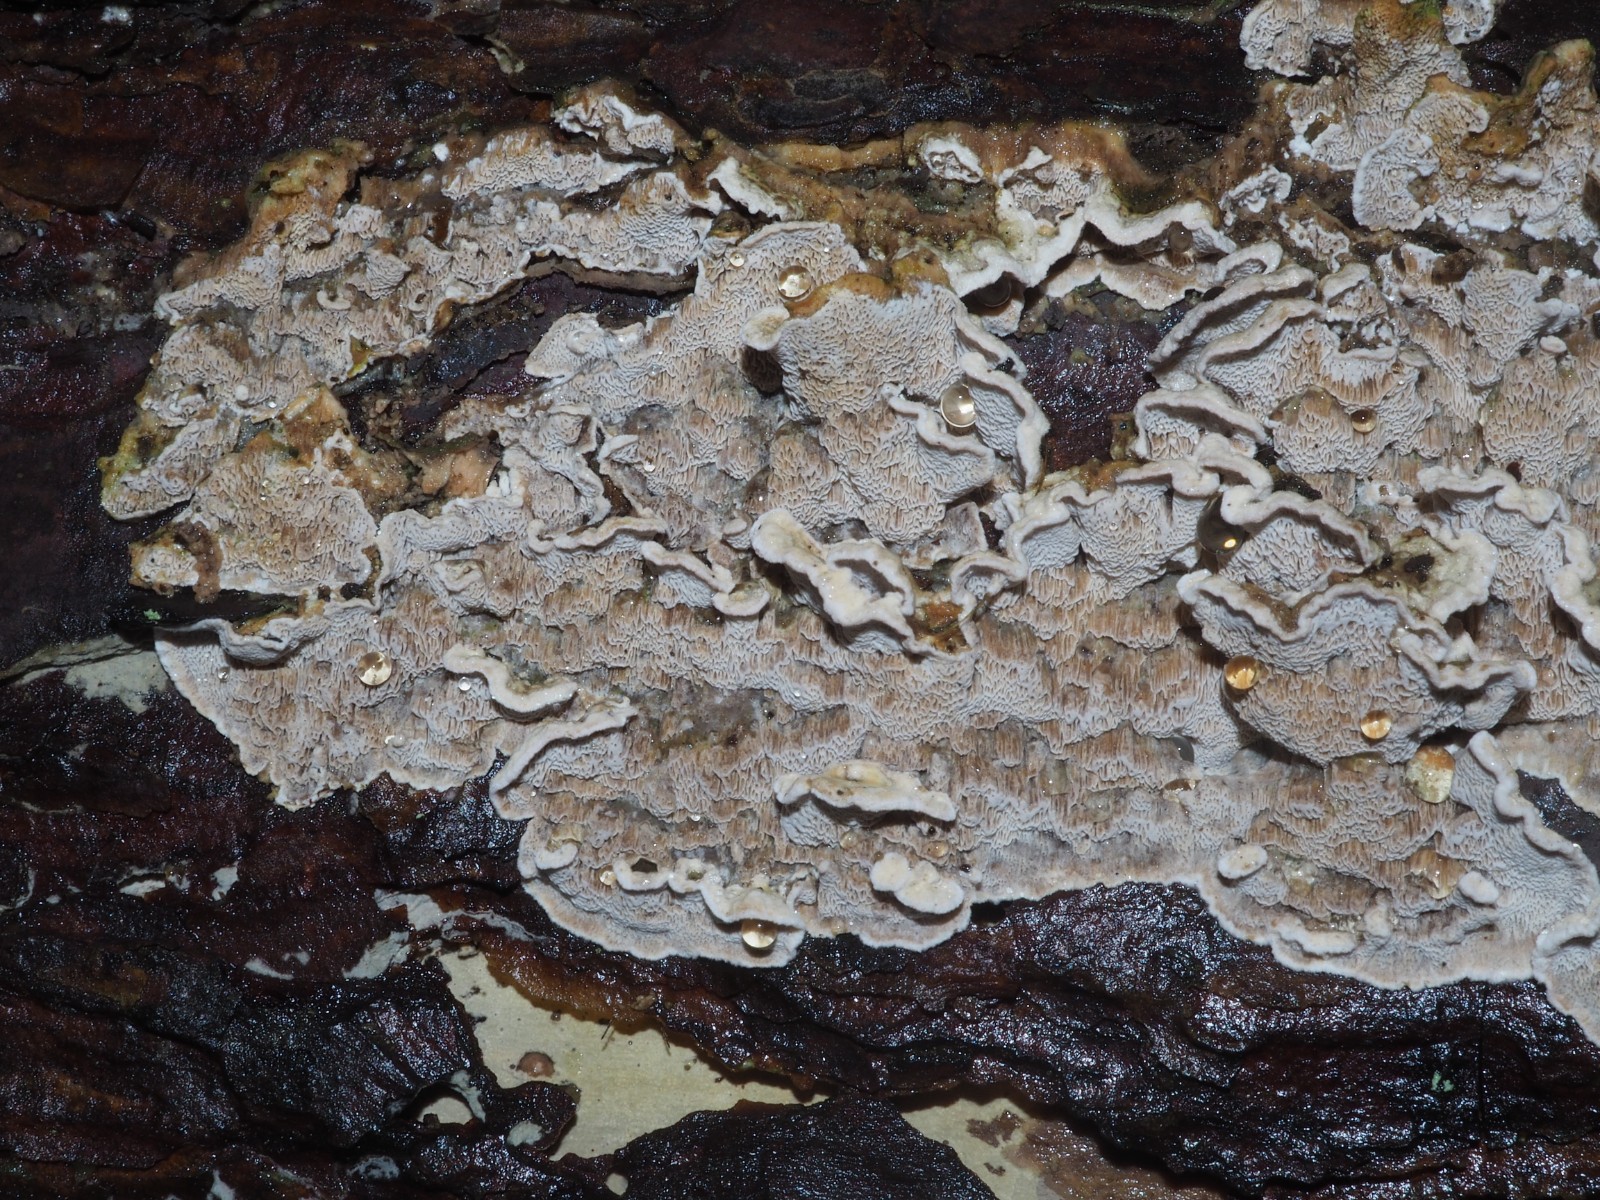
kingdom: Fungi
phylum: Basidiomycota
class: Agaricomycetes
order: Polyporales
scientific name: Polyporales
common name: poresvampordenen
